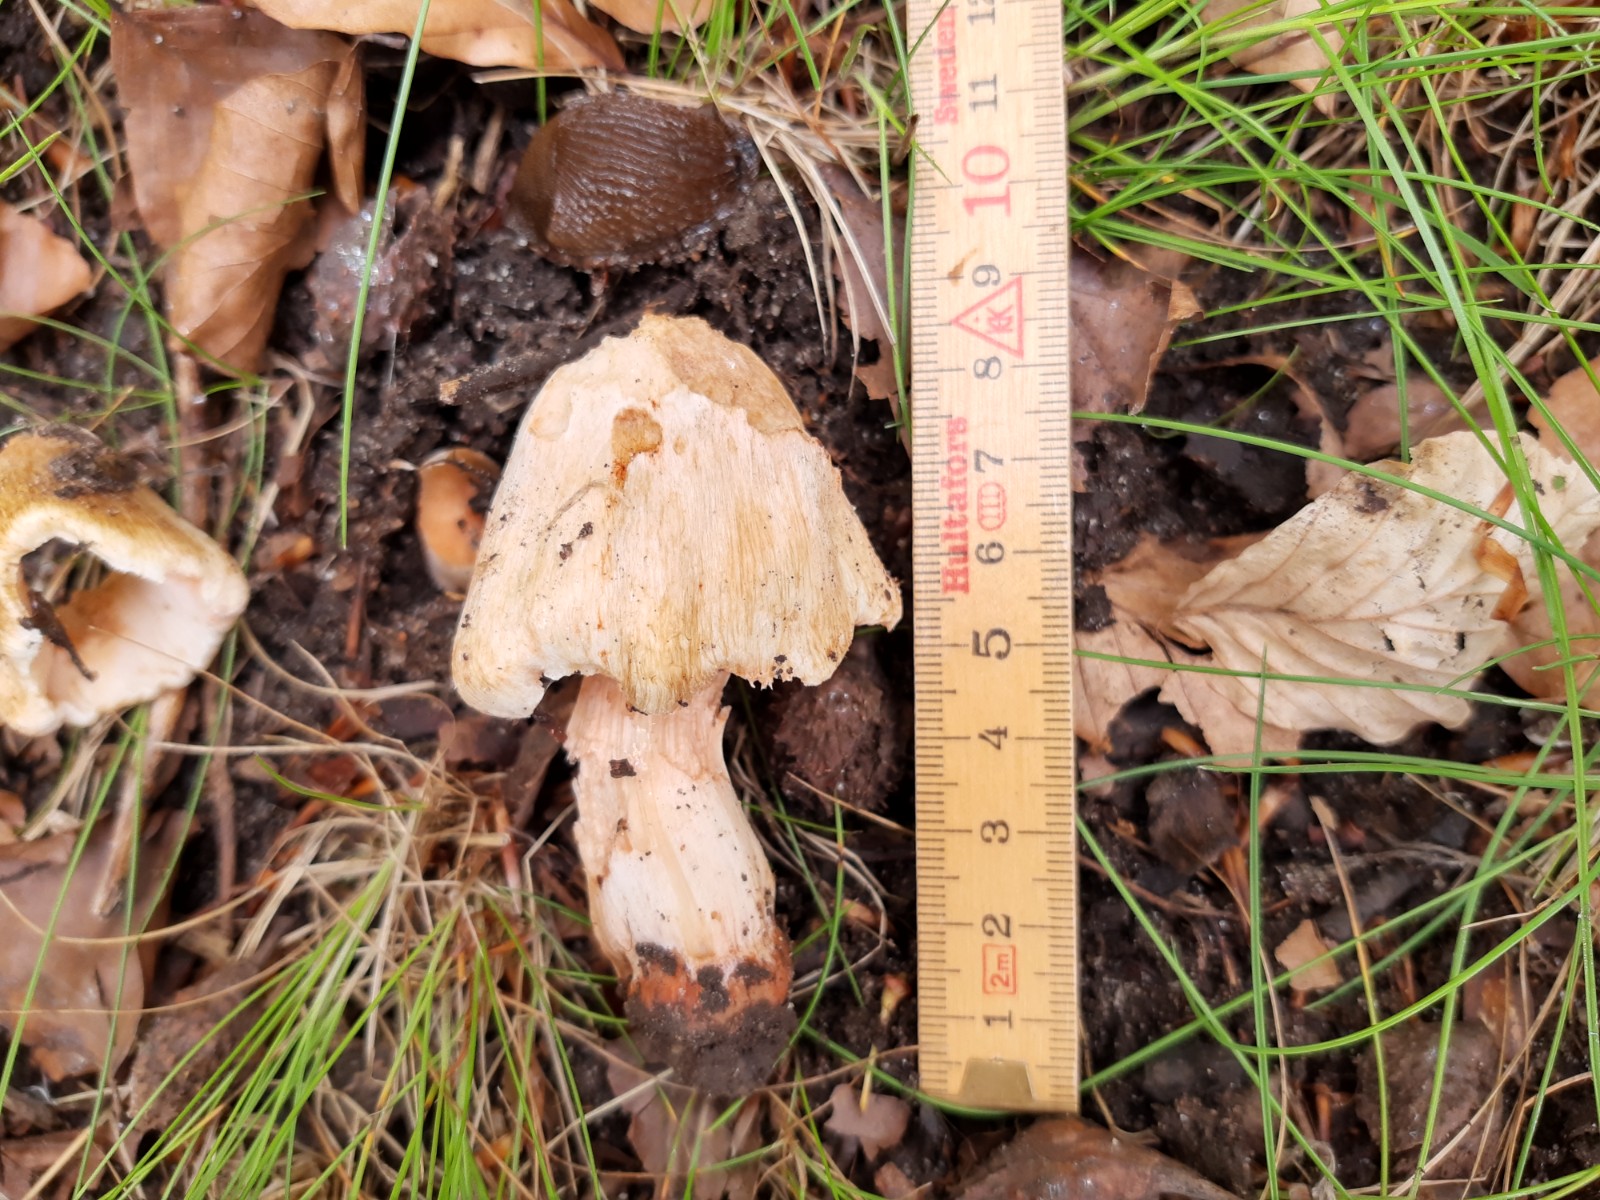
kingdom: Fungi
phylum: Basidiomycota
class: Agaricomycetes
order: Agaricales
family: Inocybaceae
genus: Inosperma
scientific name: Inosperma erubescens
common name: giftig trævlhat
